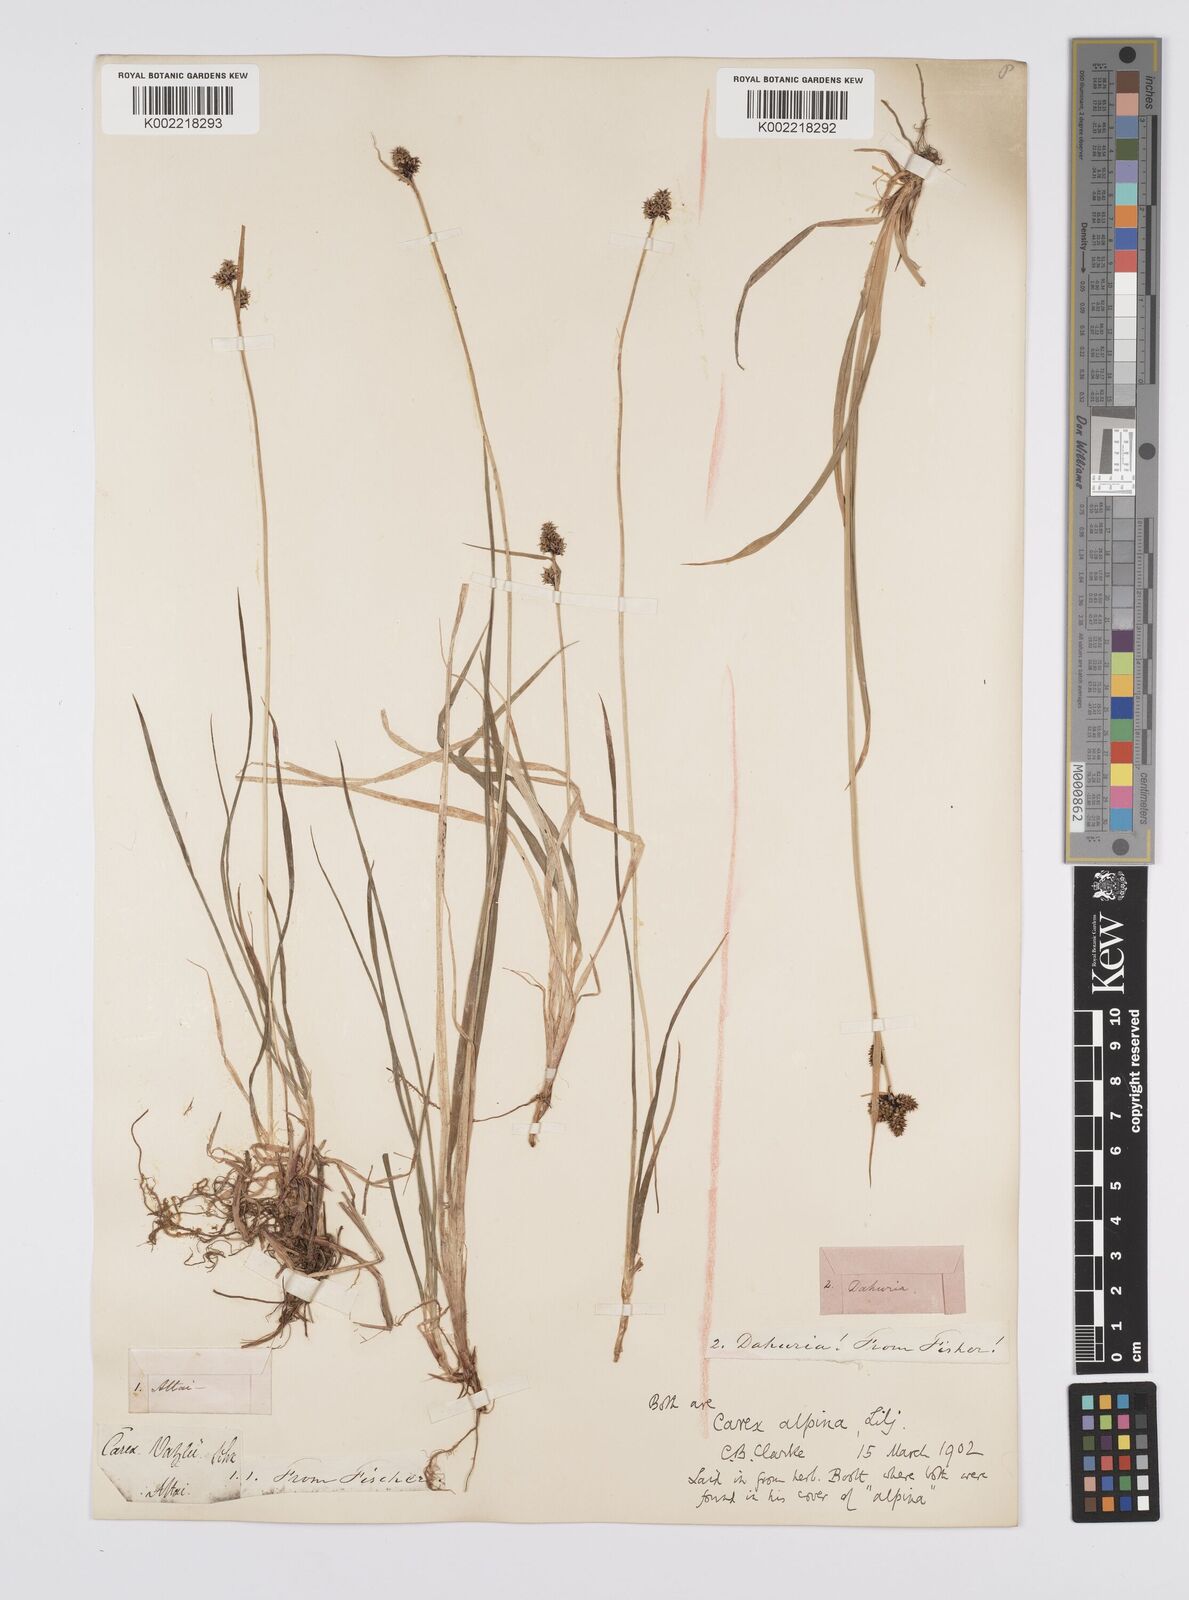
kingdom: Plantae
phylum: Tracheophyta
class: Liliopsida
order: Poales
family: Cyperaceae
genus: Carex
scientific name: Carex nigra
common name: Common sedge
